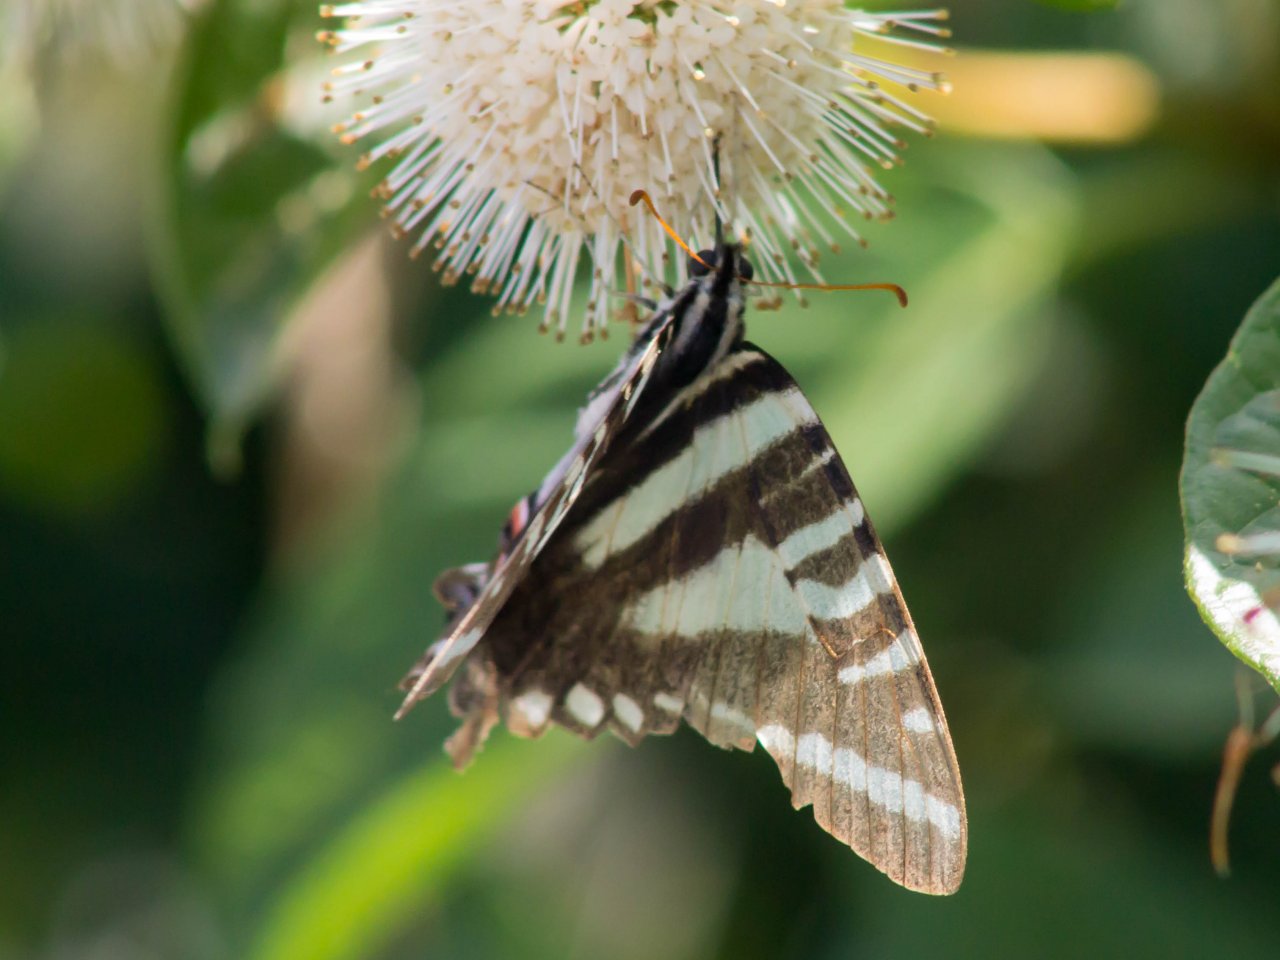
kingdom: Animalia
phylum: Arthropoda
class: Insecta
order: Lepidoptera
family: Papilionidae
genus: Protographium
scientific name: Protographium marcellus
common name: Zebra Swallowtail
